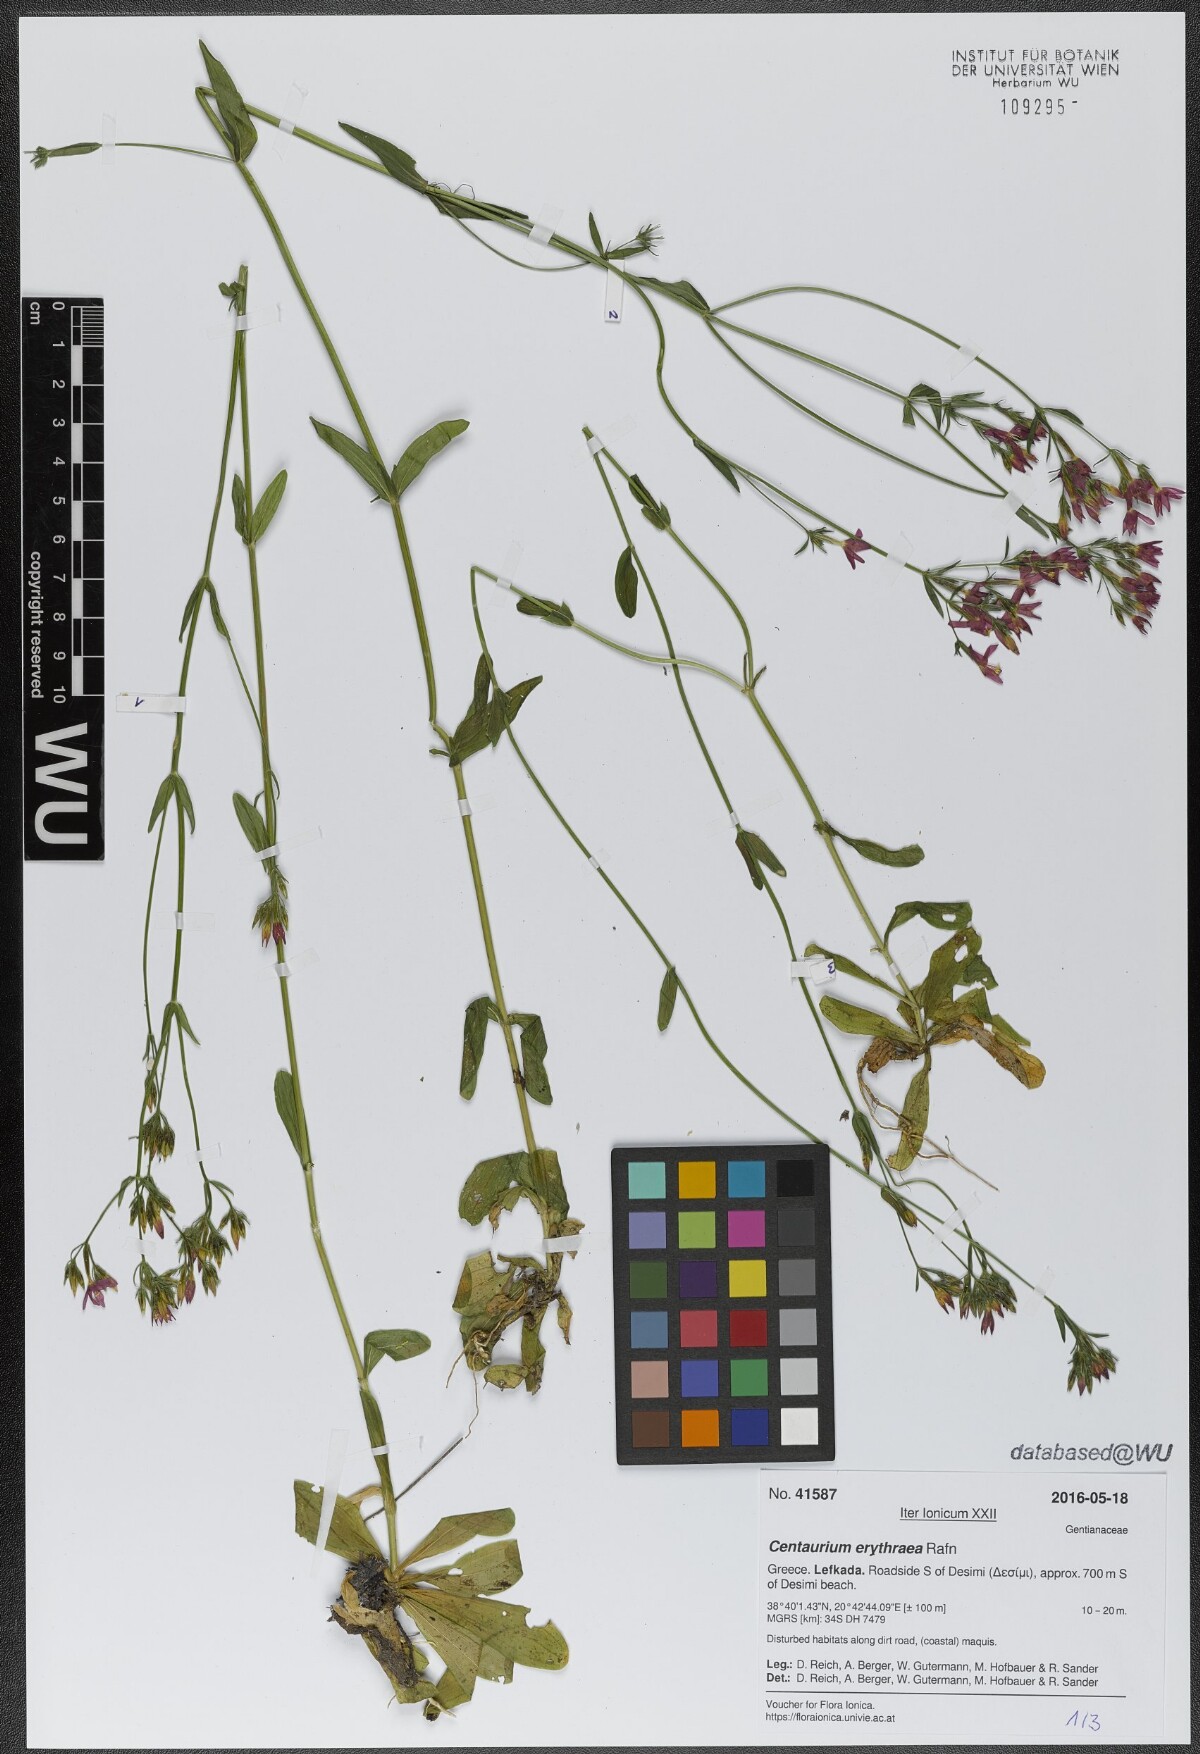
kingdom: Plantae
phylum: Tracheophyta
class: Magnoliopsida
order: Gentianales
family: Gentianaceae
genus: Centaurium
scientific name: Centaurium erythraea
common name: Common centaury
